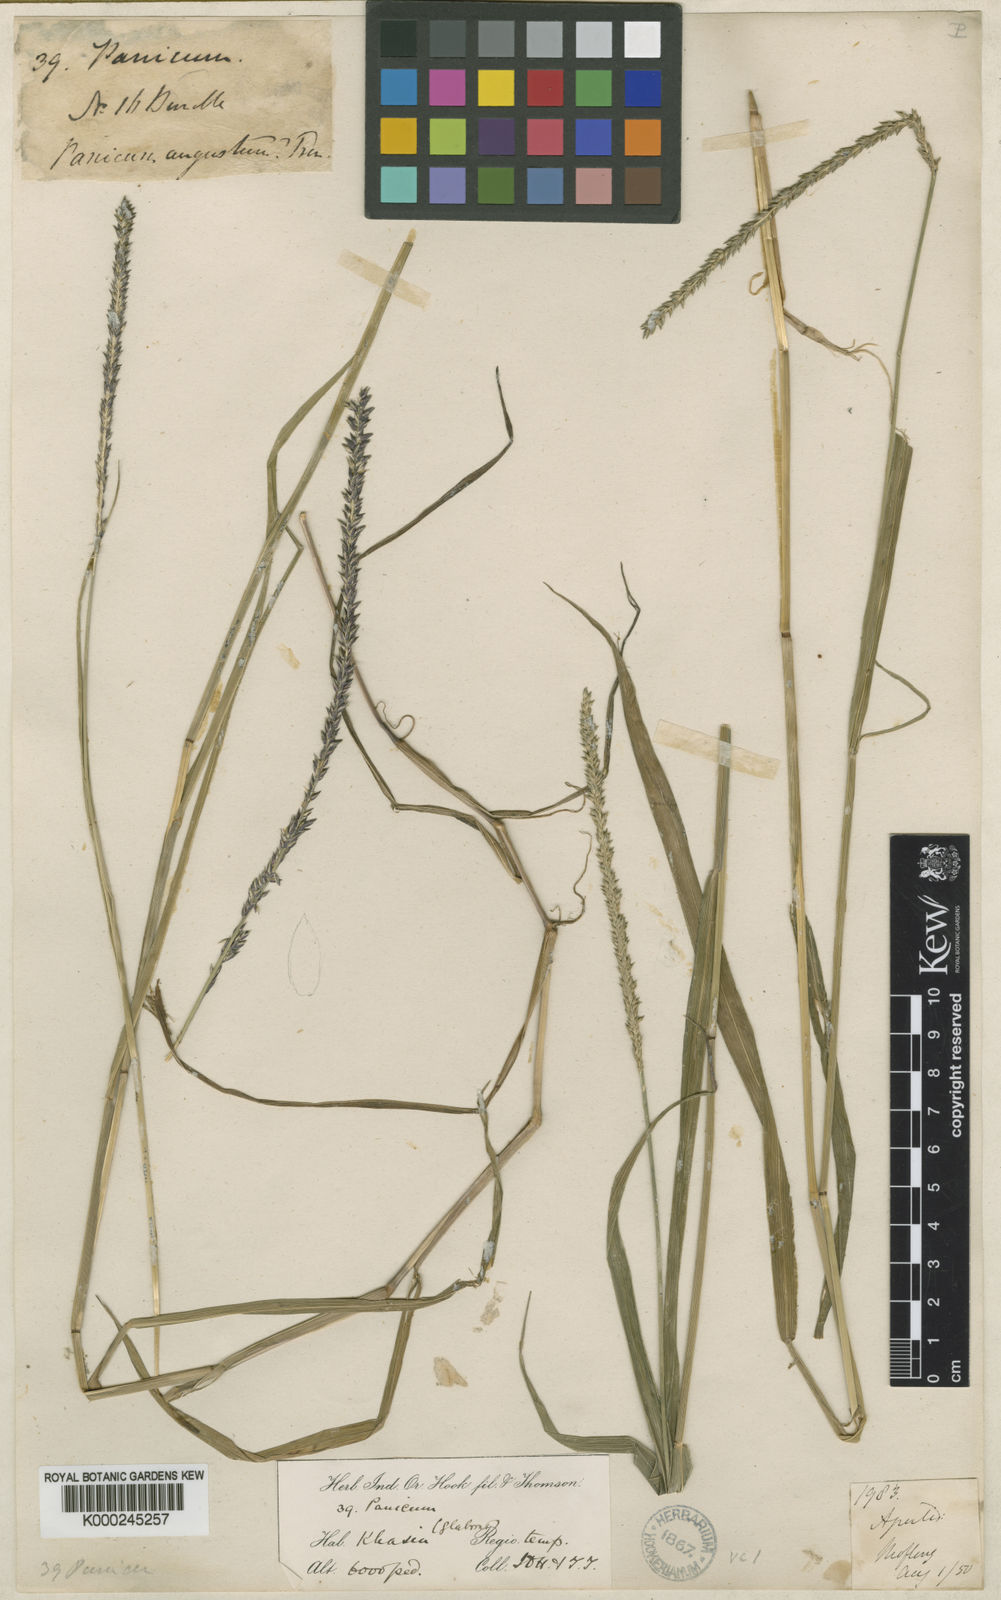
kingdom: Plantae
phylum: Tracheophyta
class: Liliopsida
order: Poales
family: Poaceae
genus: Sacciolepis
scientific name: Sacciolepis indica
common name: Glenwoodgrass
